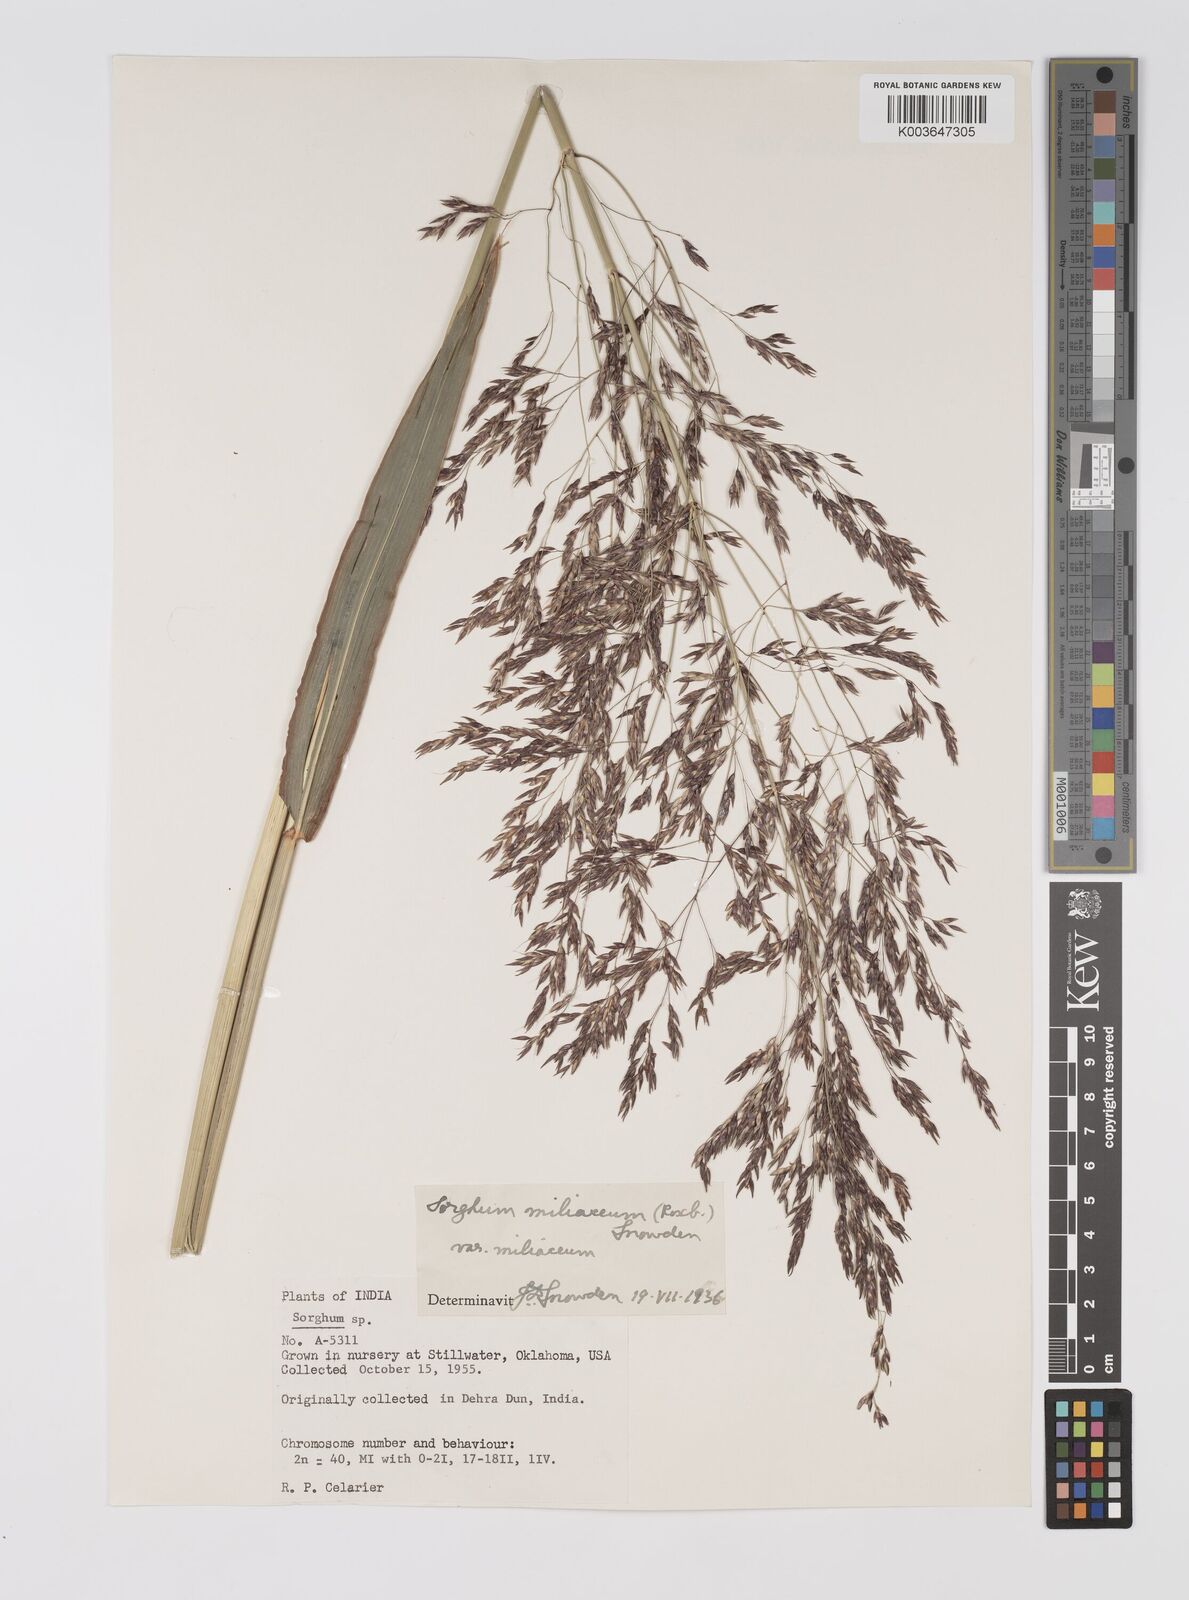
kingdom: Plantae
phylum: Tracheophyta
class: Liliopsida
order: Poales
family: Poaceae
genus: Sorghum
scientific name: Sorghum halepense
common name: Johnson-grass
